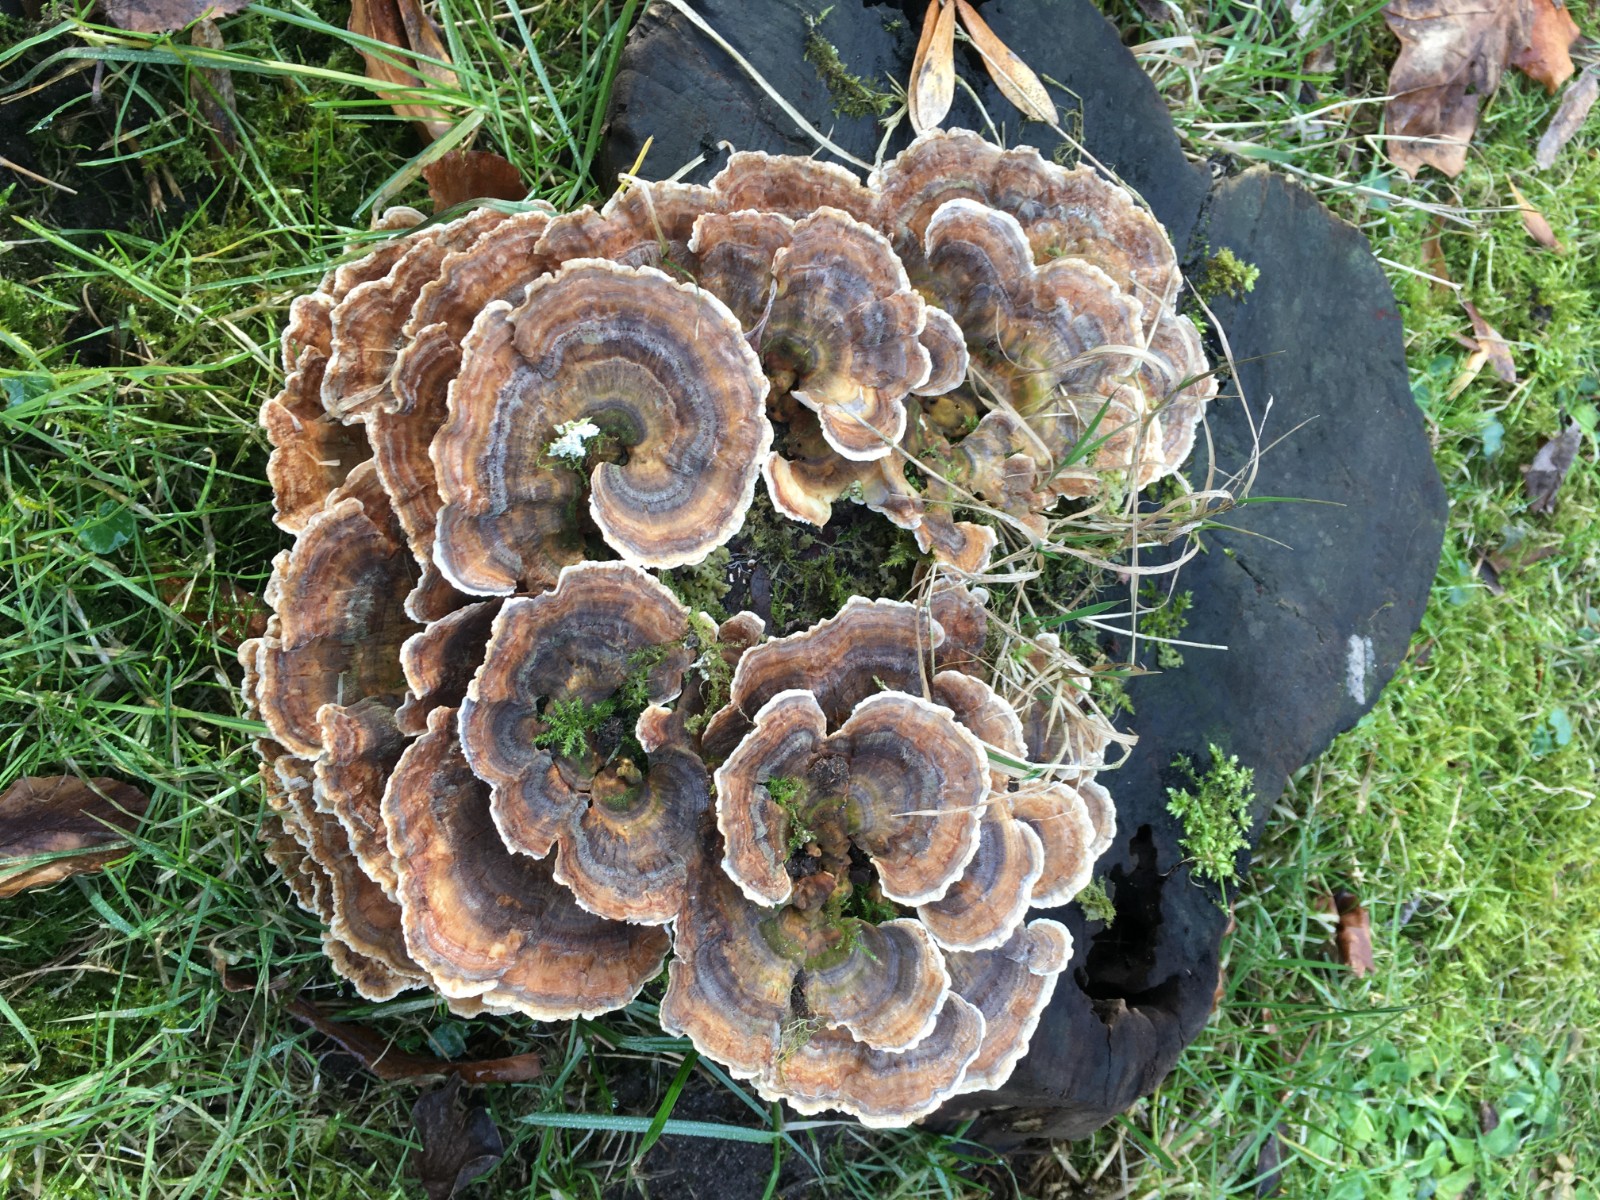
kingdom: Fungi
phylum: Basidiomycota
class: Agaricomycetes
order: Polyporales
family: Polyporaceae
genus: Trametes
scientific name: Trametes versicolor
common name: broget læderporesvamp
